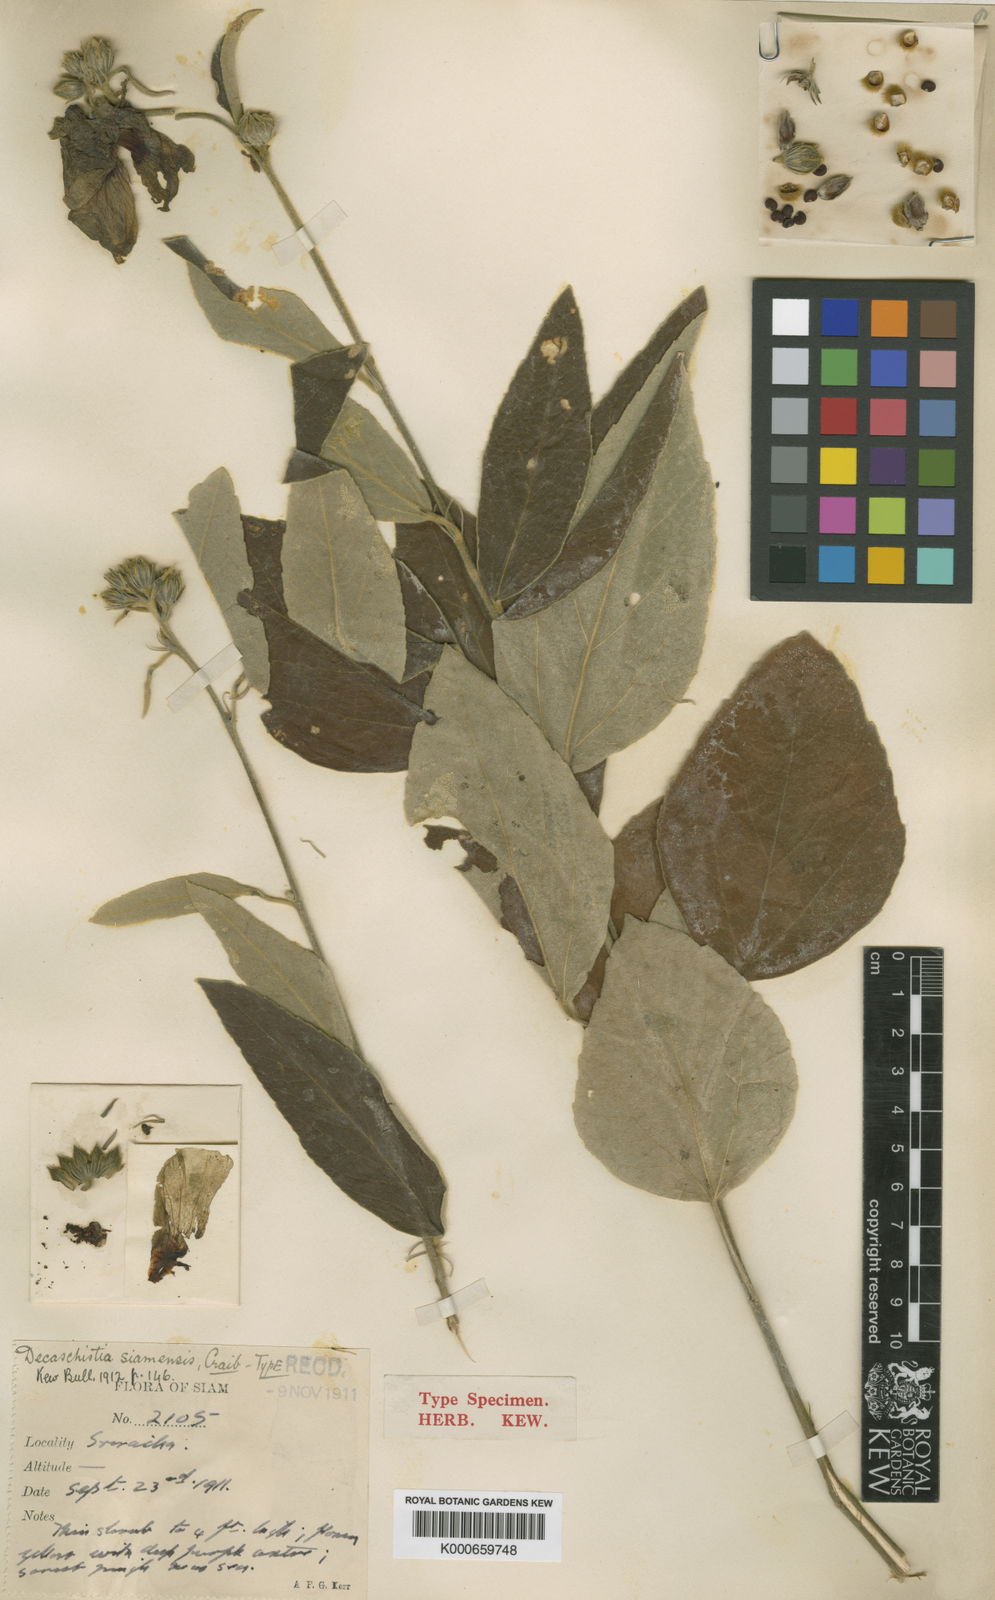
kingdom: Plantae
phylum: Tracheophyta
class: Magnoliopsida
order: Malvales
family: Malvaceae
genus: Decaschistia
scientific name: Decaschistia parviflora
